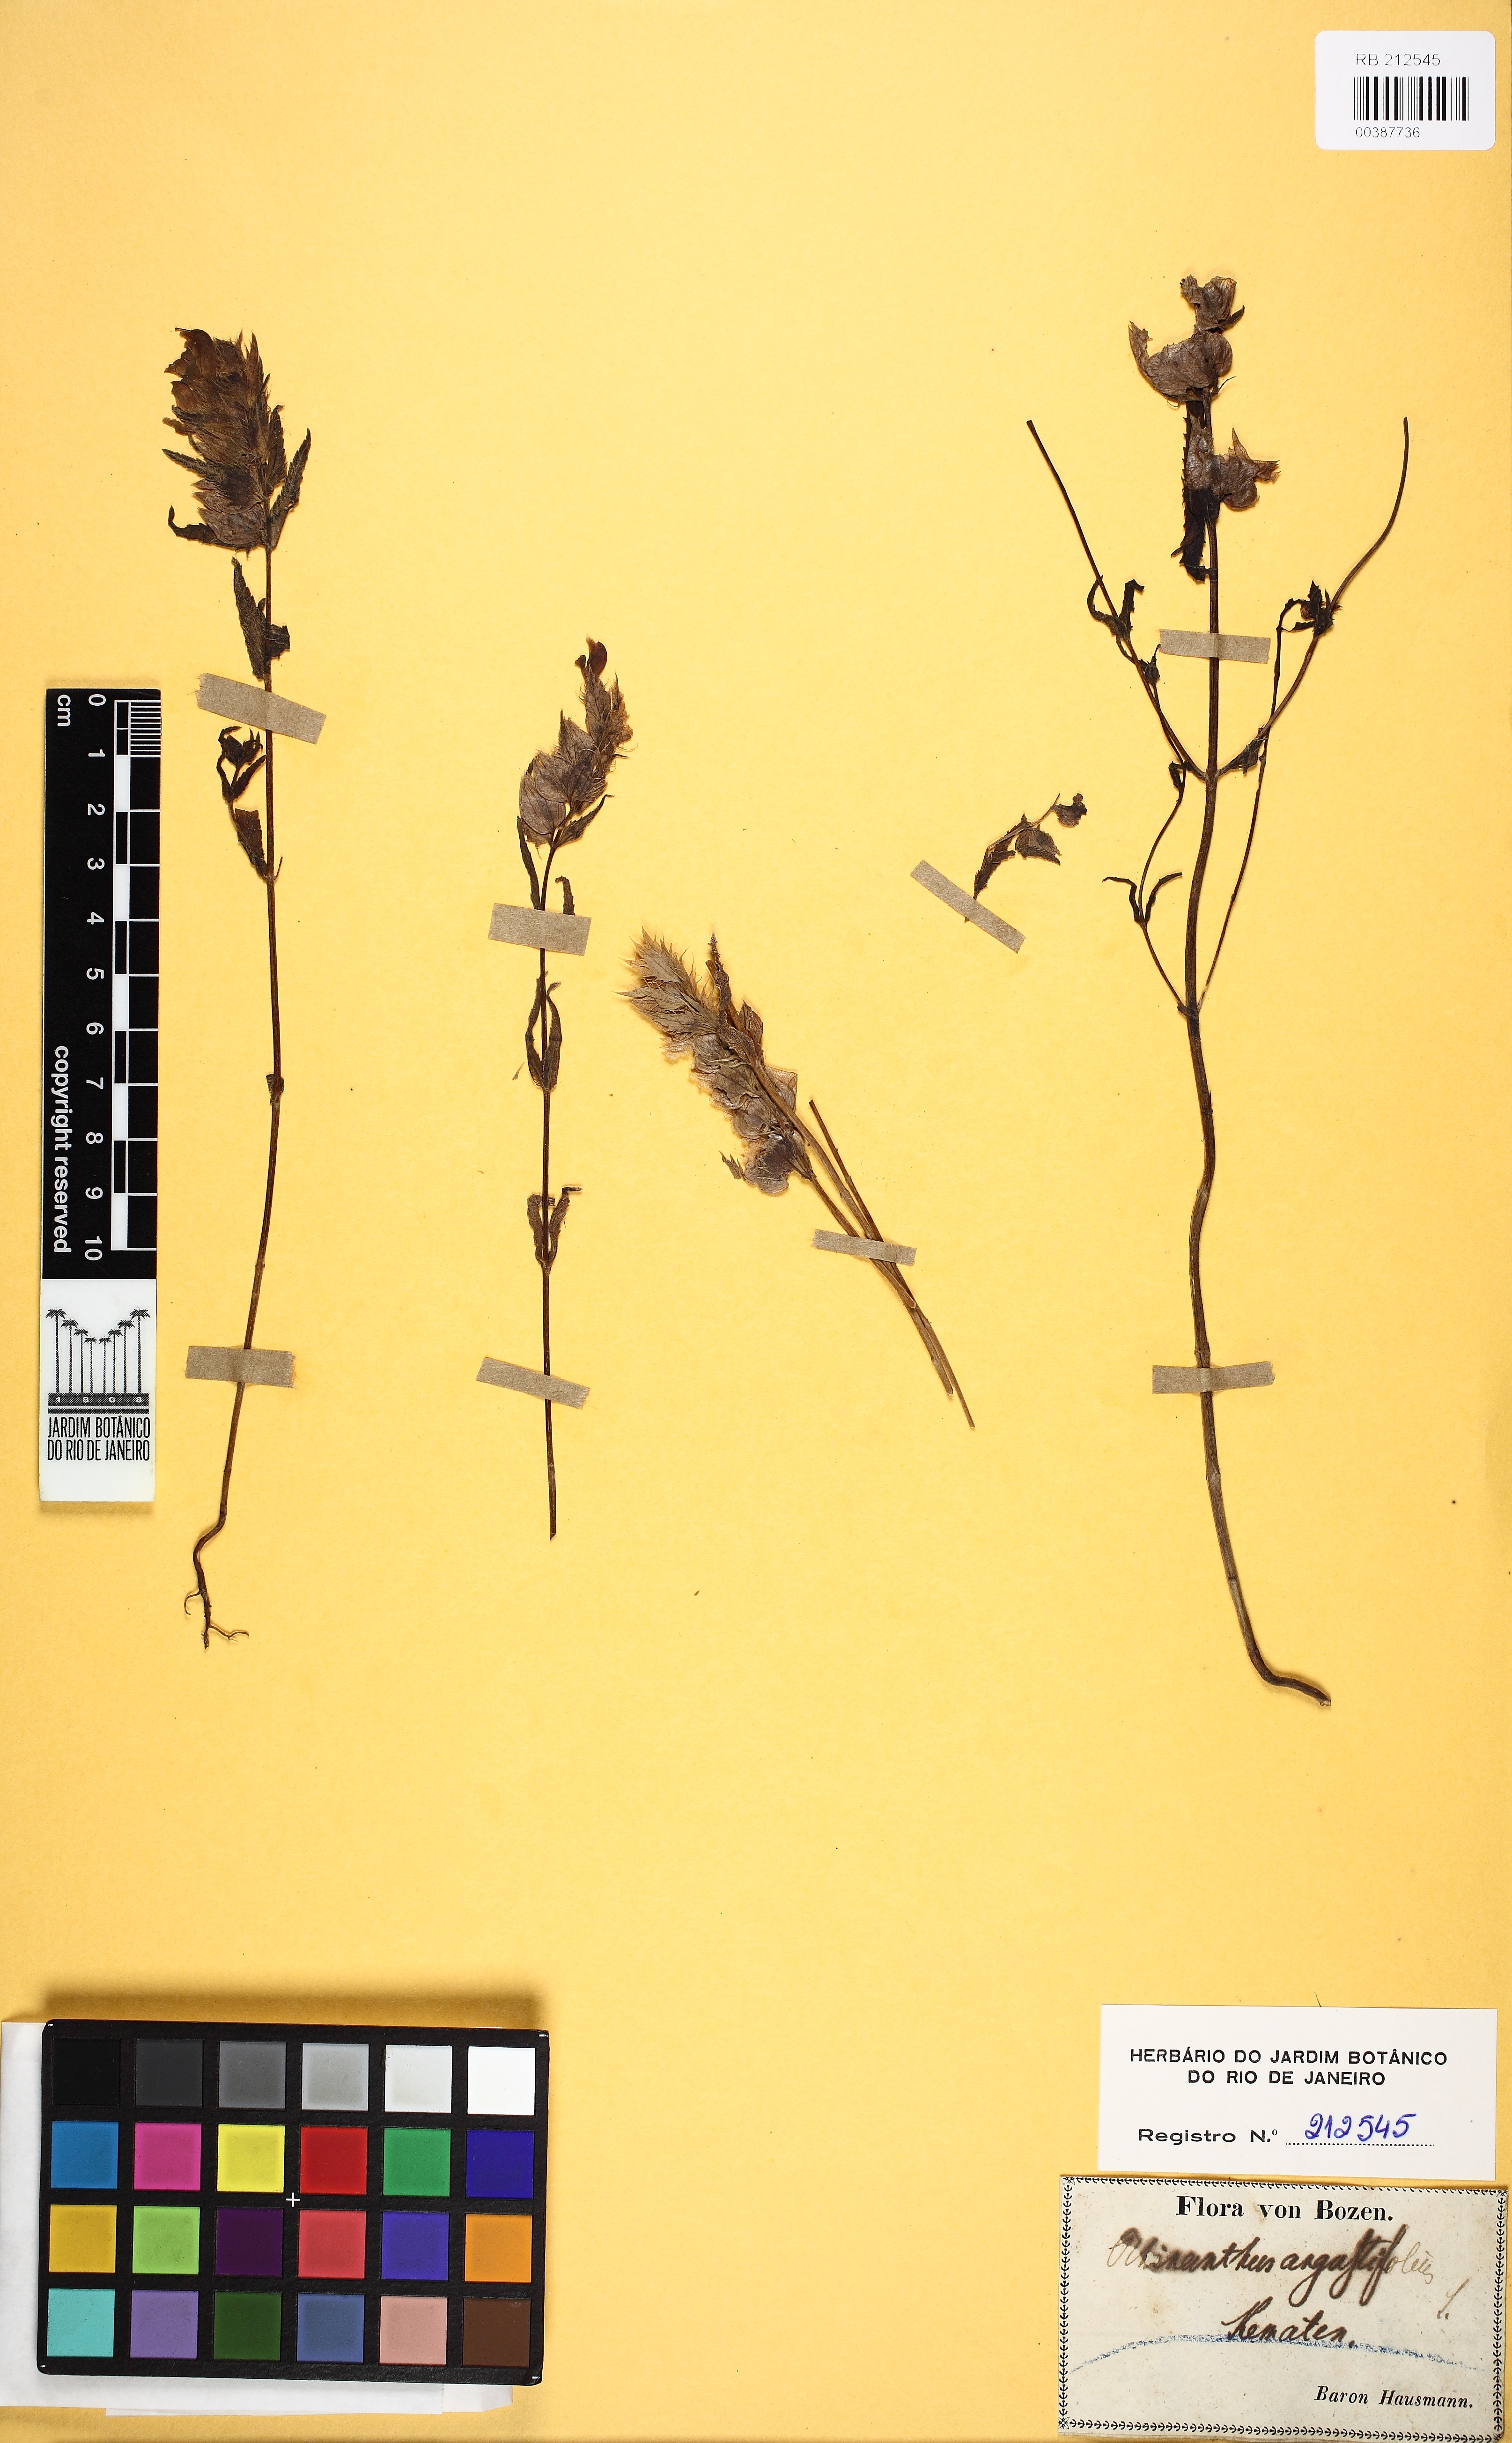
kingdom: Plantae
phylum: Tracheophyta
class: Magnoliopsida
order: Lamiales
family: Orobanchaceae
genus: Rhinanthus
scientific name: Rhinanthus
